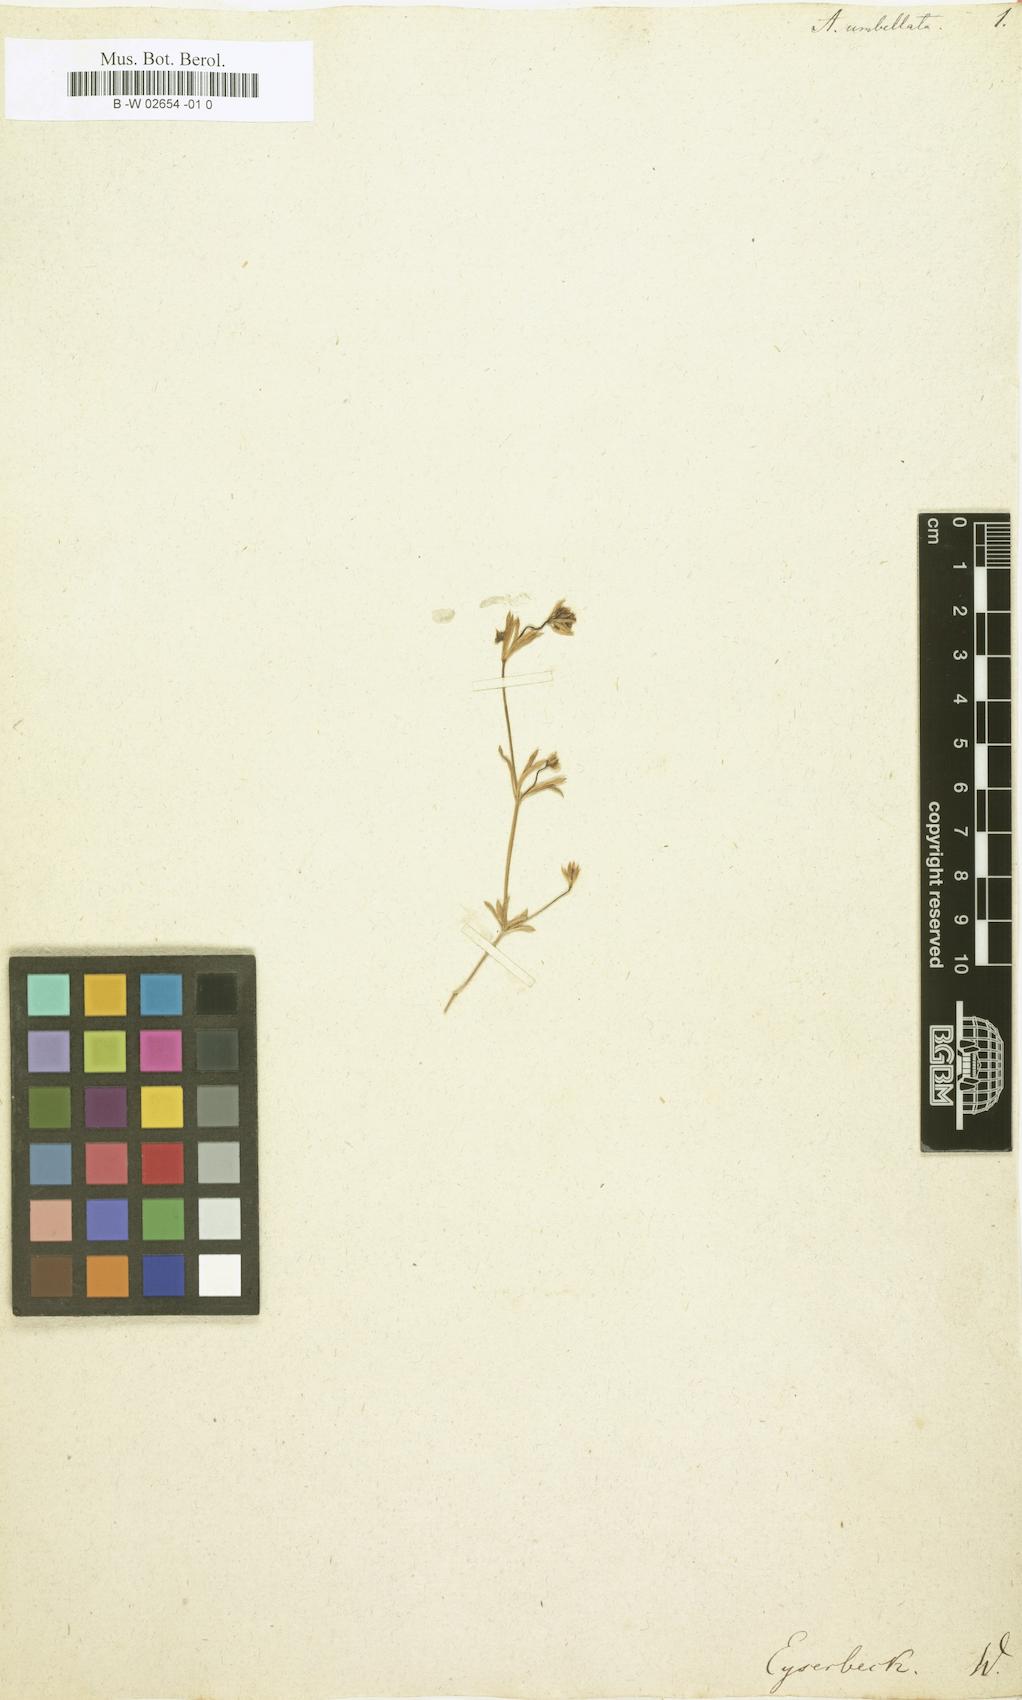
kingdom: Plantae
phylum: Tracheophyta
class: Magnoliopsida
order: Gentianales
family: Rubiaceae
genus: Hexaphylla
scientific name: Hexaphylla capitata
